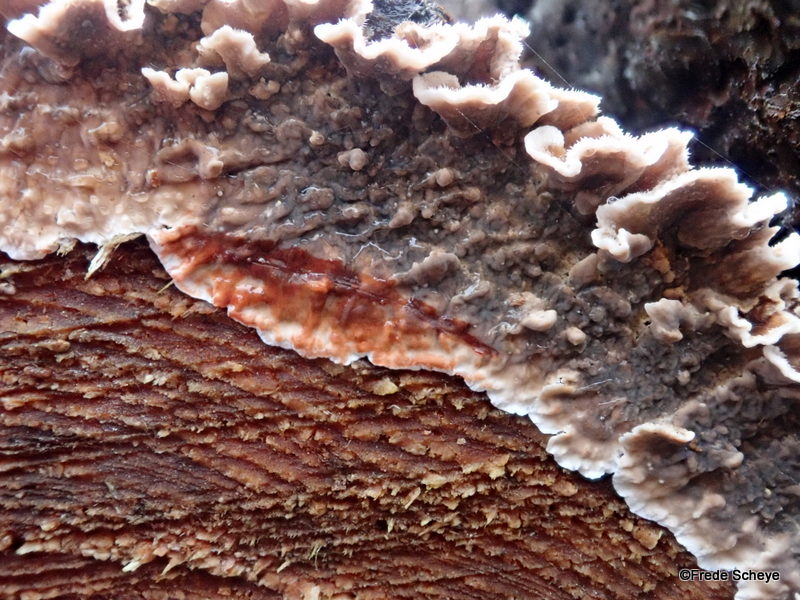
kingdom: Fungi
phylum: Basidiomycota
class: Agaricomycetes
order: Russulales
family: Stereaceae
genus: Stereum
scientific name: Stereum sanguinolentum
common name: blødende lædersvamp
